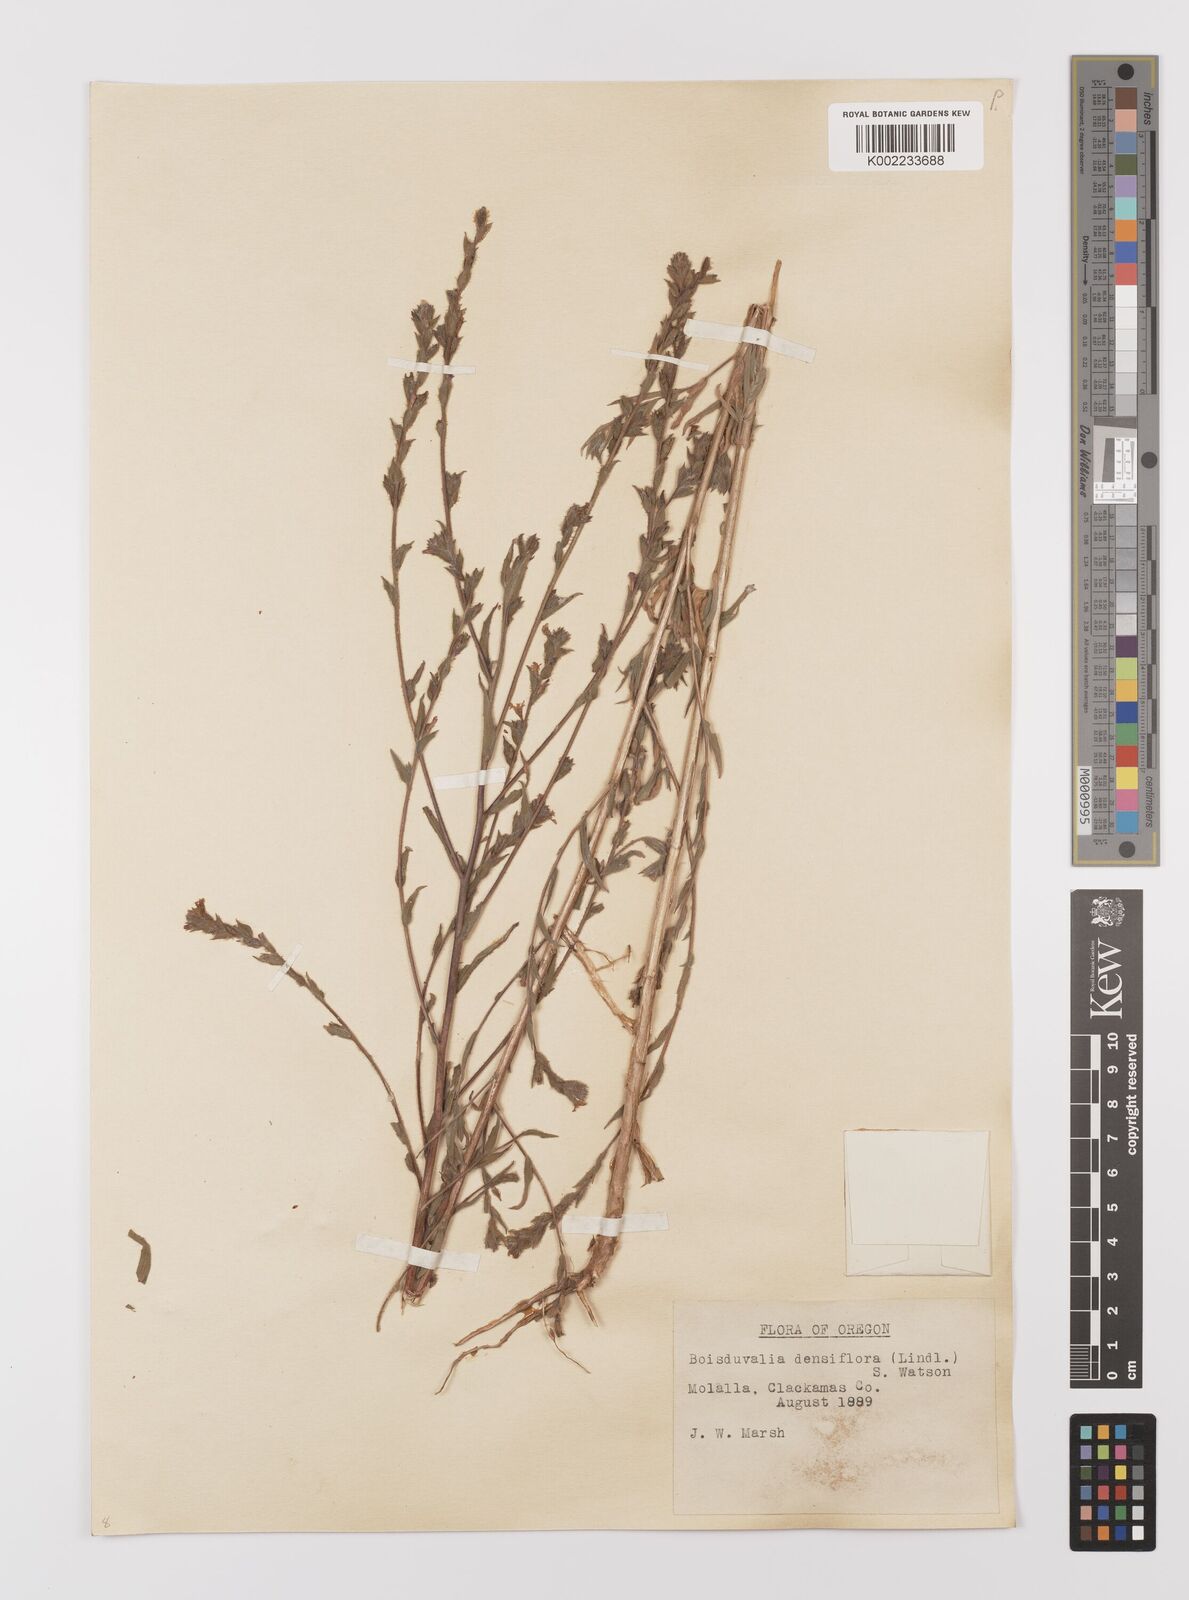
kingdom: Plantae
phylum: Tracheophyta
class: Magnoliopsida
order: Myrtales
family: Onagraceae
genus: Epilobium
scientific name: Epilobium densiflorum
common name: Dense spike-primrose
